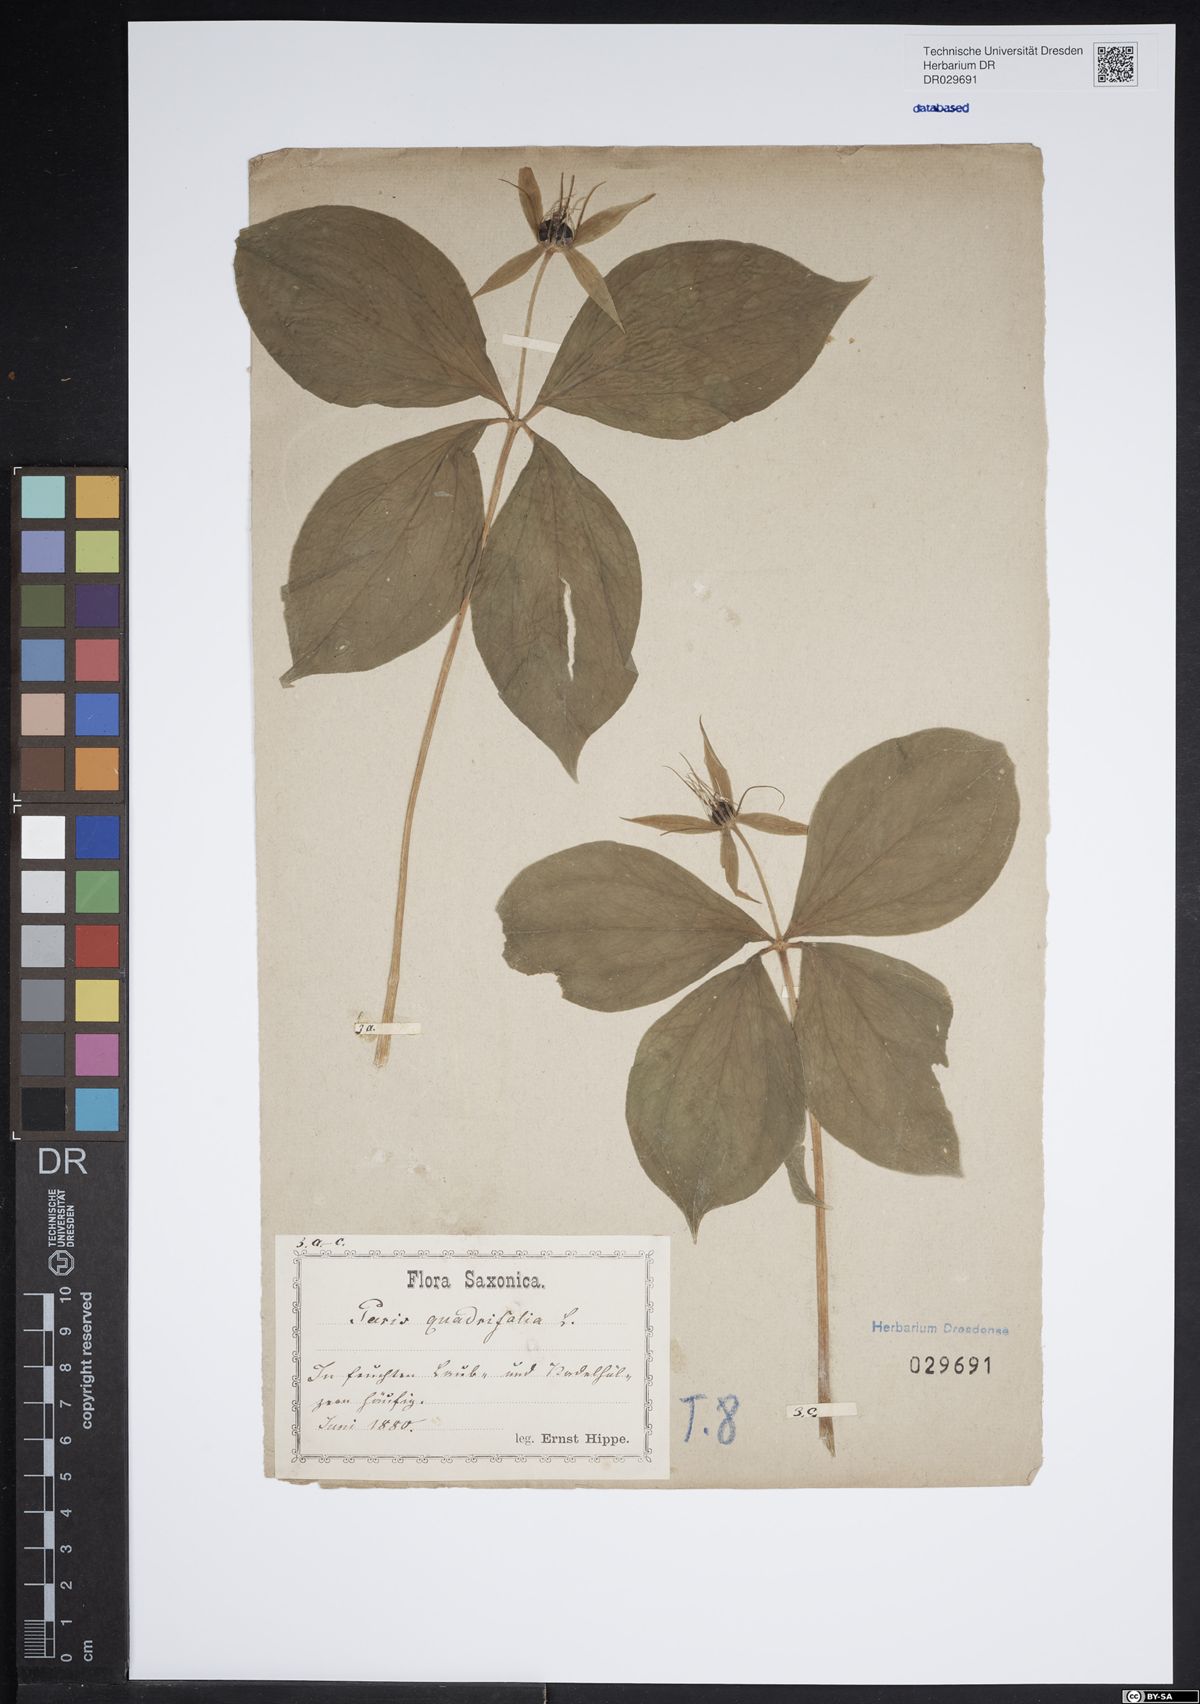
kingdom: Plantae
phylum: Tracheophyta
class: Liliopsida
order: Liliales
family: Melanthiaceae
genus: Paris
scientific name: Paris quadrifolia
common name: Herb-paris
